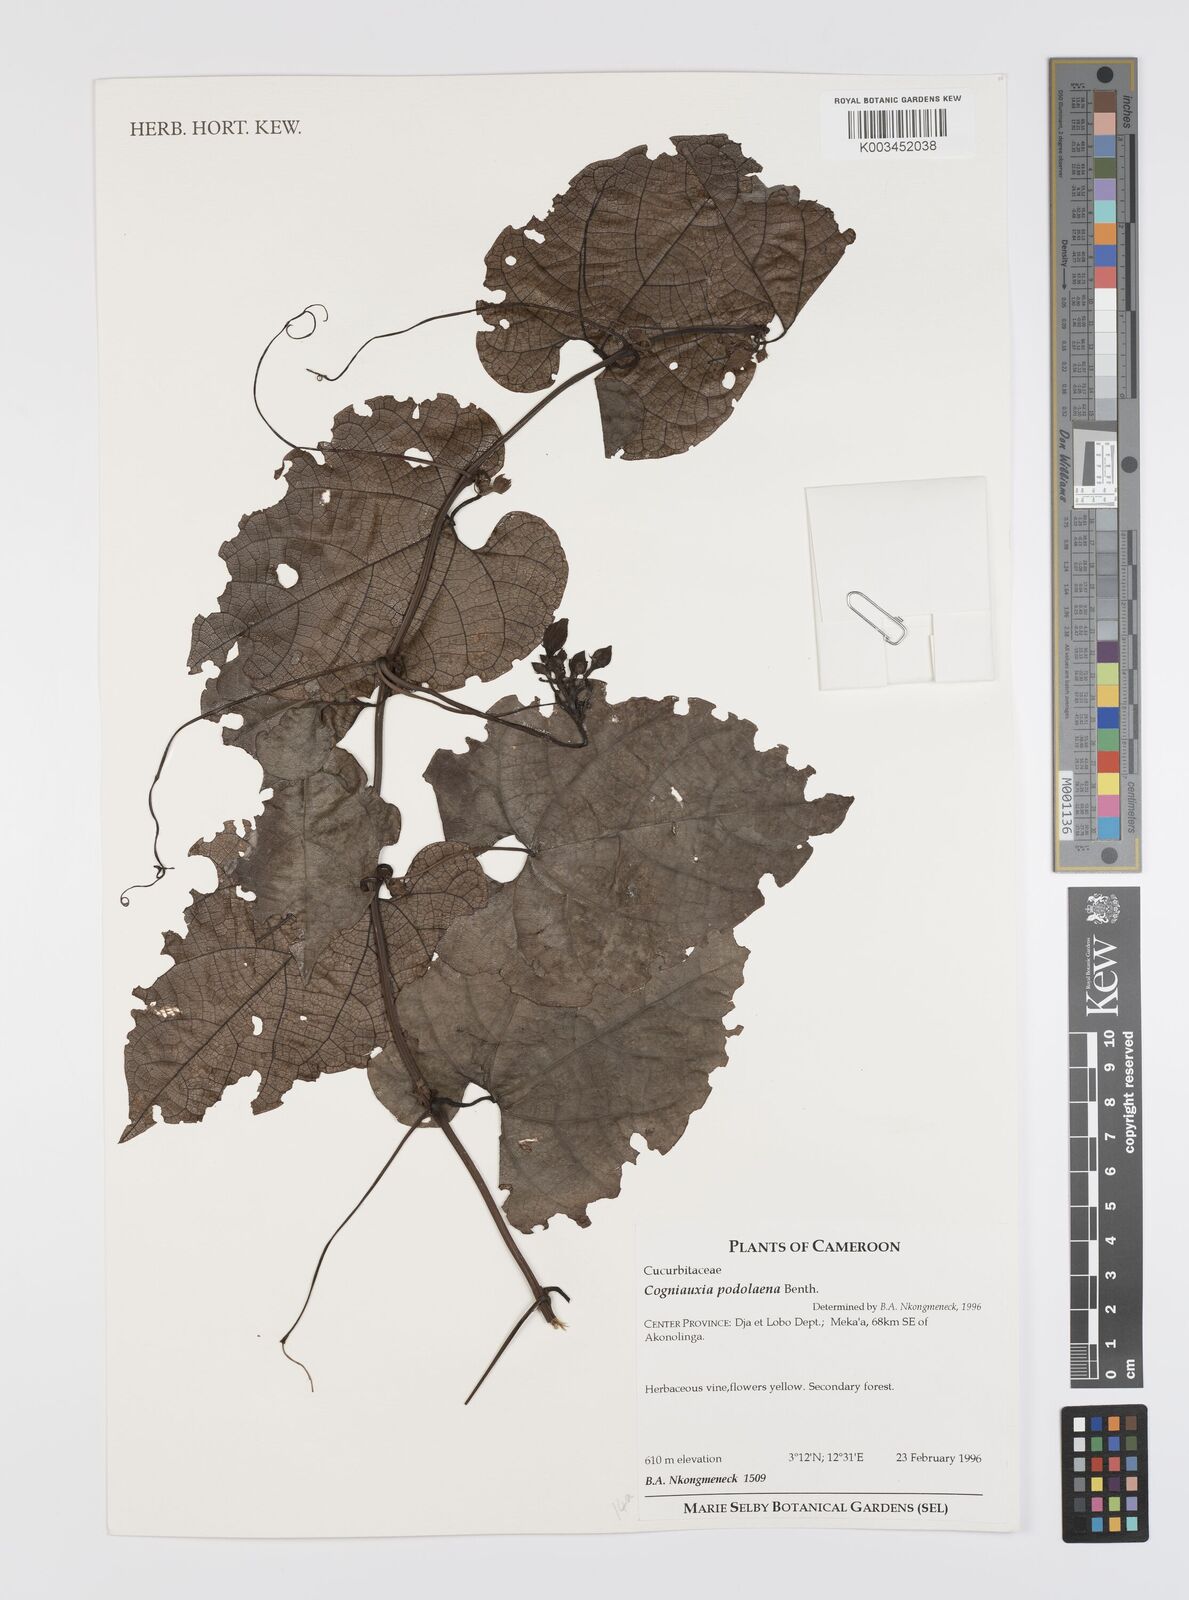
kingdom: Plantae
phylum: Tracheophyta
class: Magnoliopsida
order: Cucurbitales
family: Cucurbitaceae
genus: Cogniauxia
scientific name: Cogniauxia podolaena
